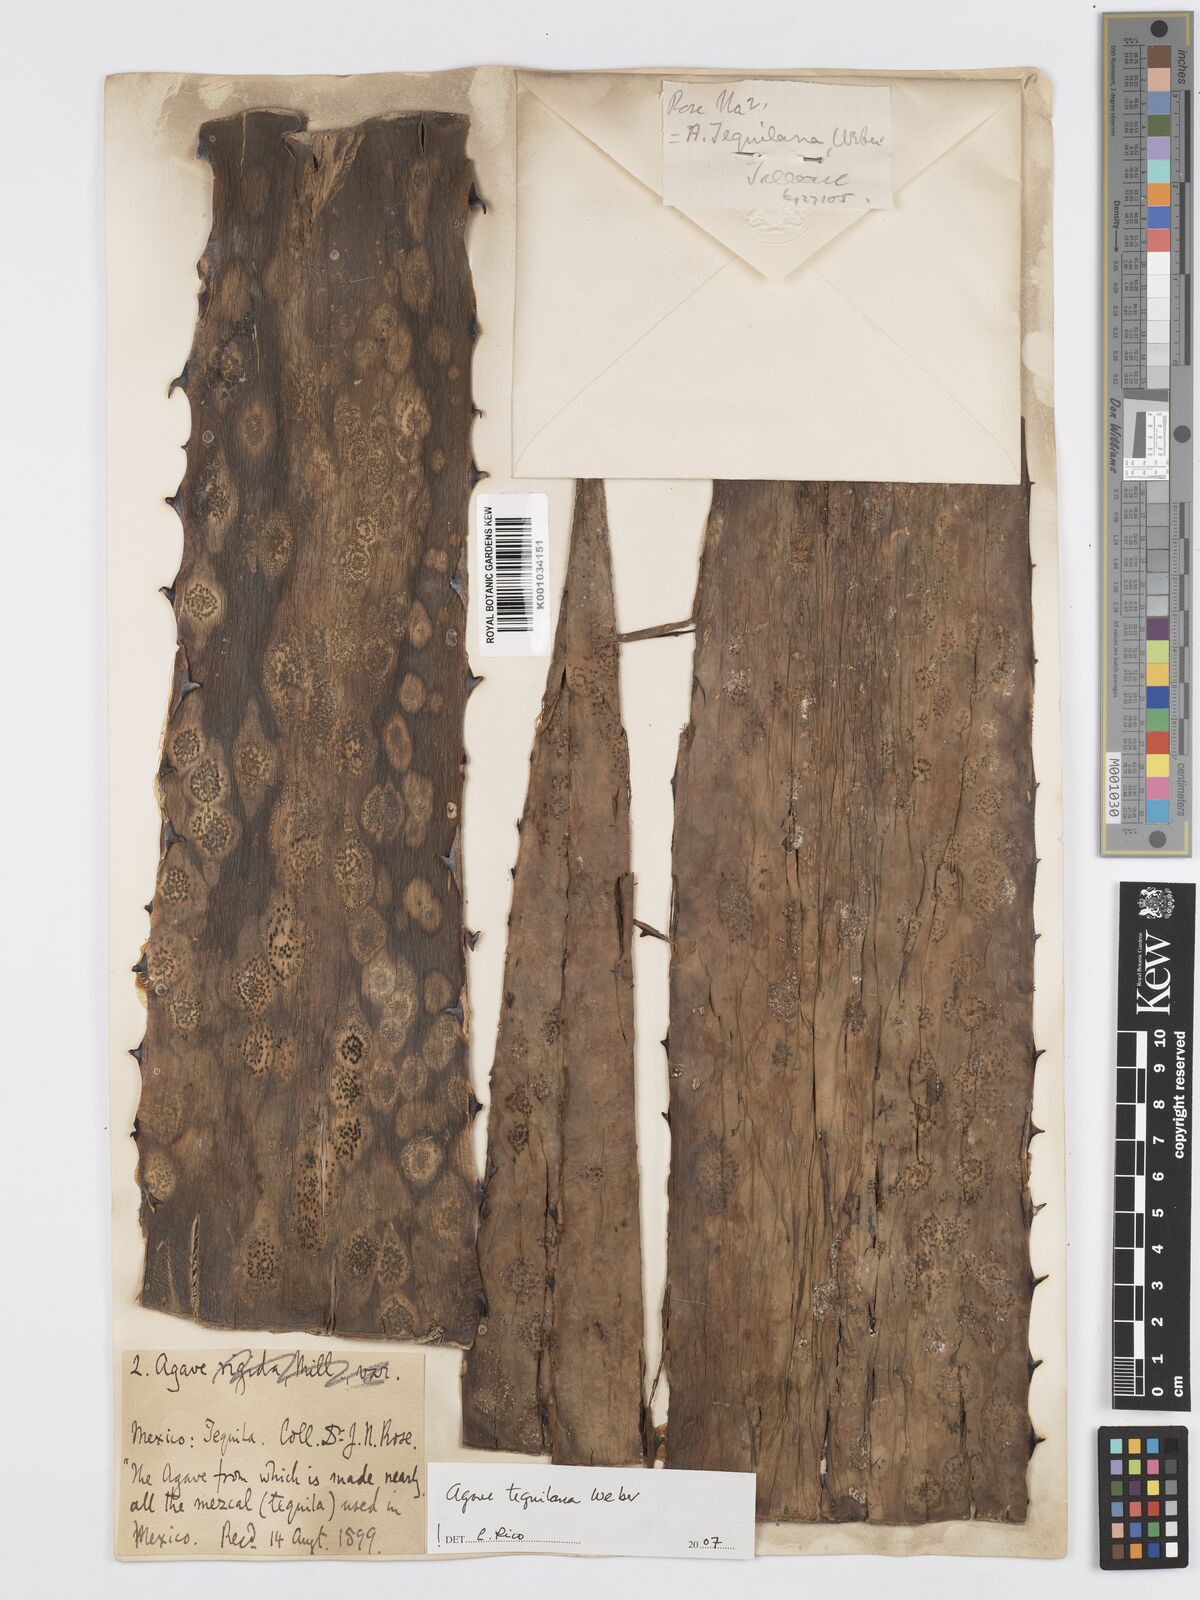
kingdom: Plantae
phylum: Tracheophyta
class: Liliopsida
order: Asparagales
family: Asparagaceae
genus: Agave
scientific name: Agave tequilana
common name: Tequila agave
